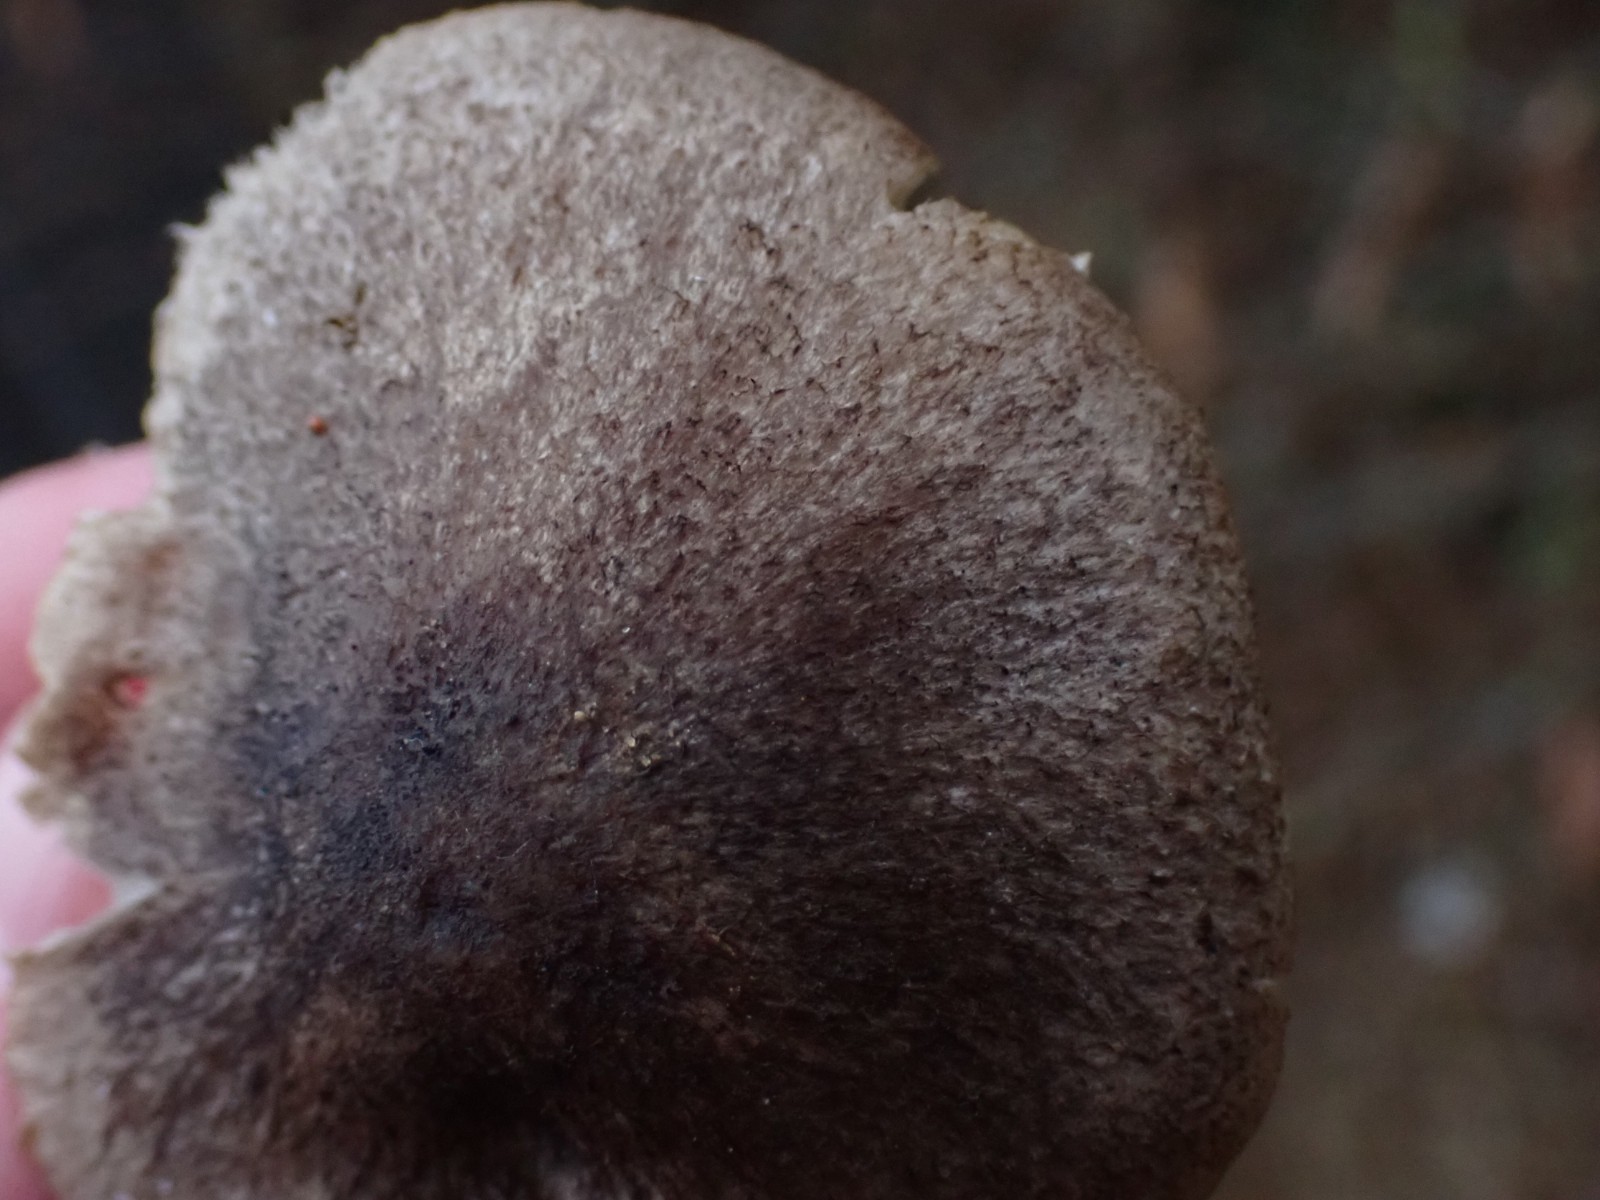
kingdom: Fungi
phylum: Basidiomycota
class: Agaricomycetes
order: Agaricales
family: Tricholomataceae
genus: Tricholoma
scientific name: Tricholoma
